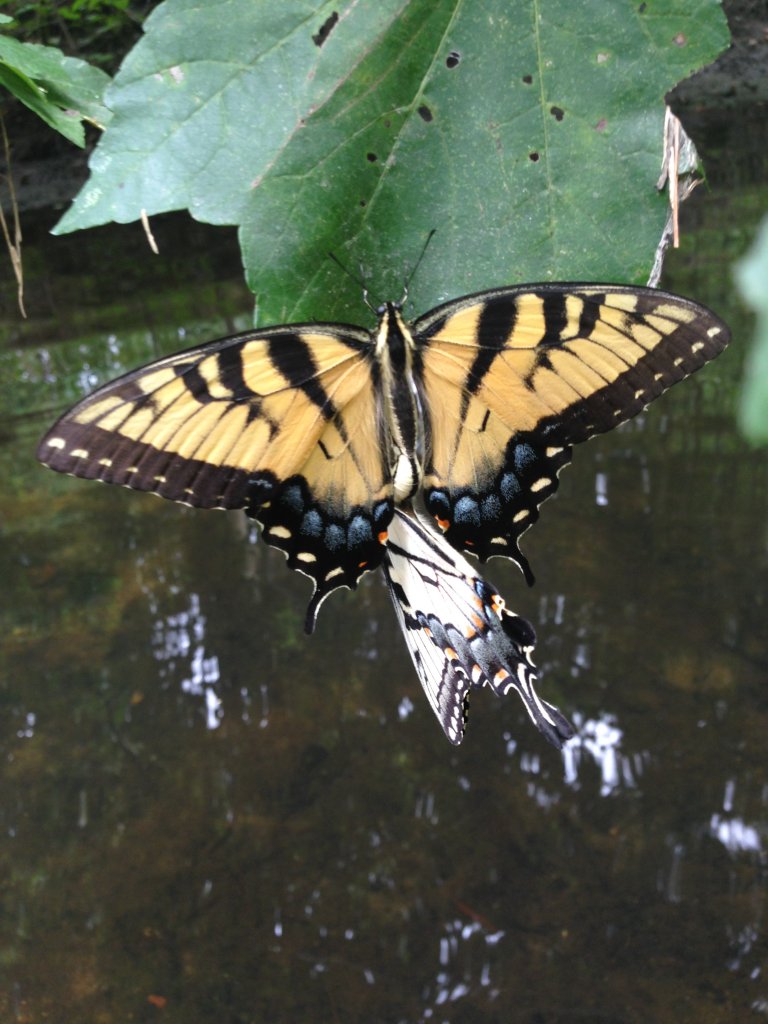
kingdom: Animalia
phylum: Arthropoda
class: Insecta
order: Lepidoptera
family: Papilionidae
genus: Pterourus
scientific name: Pterourus glaucus
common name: Eastern Tiger Swallowtail
